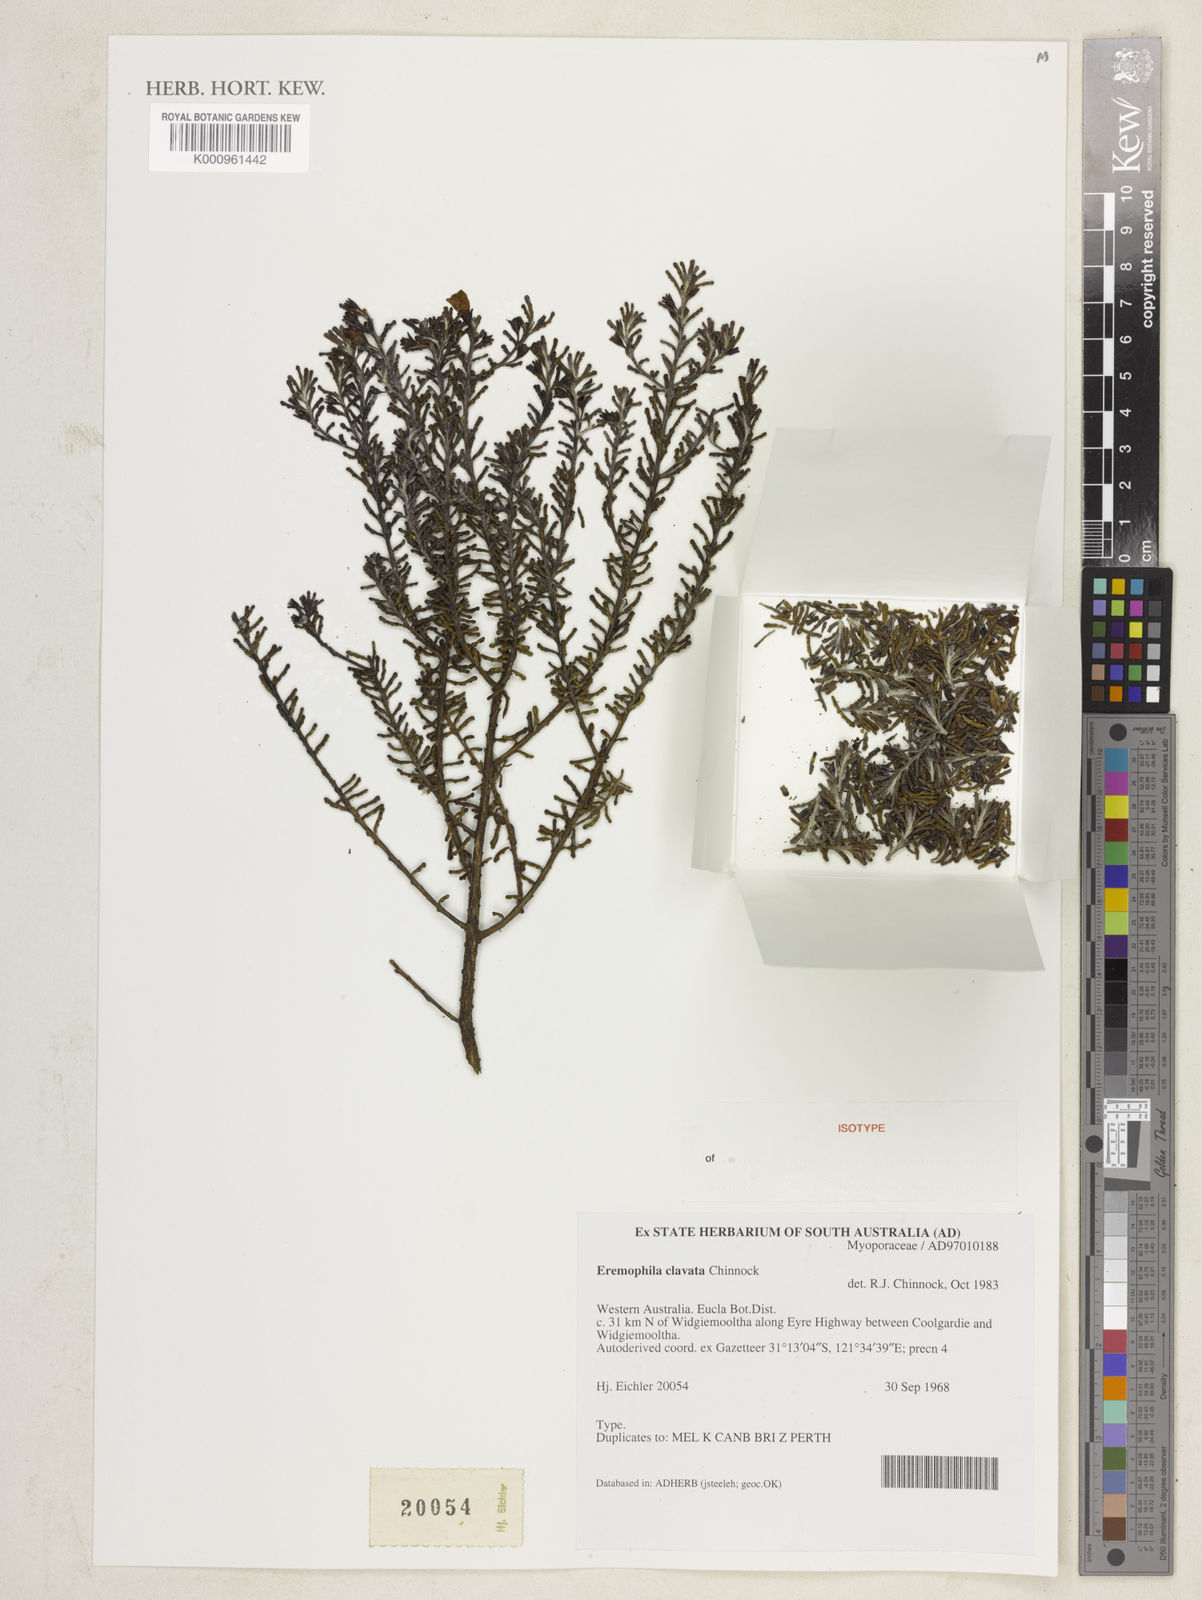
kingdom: Plantae
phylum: Tracheophyta
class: Magnoliopsida
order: Lamiales
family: Scrophulariaceae
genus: Eremophila
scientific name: Eremophila clavata
